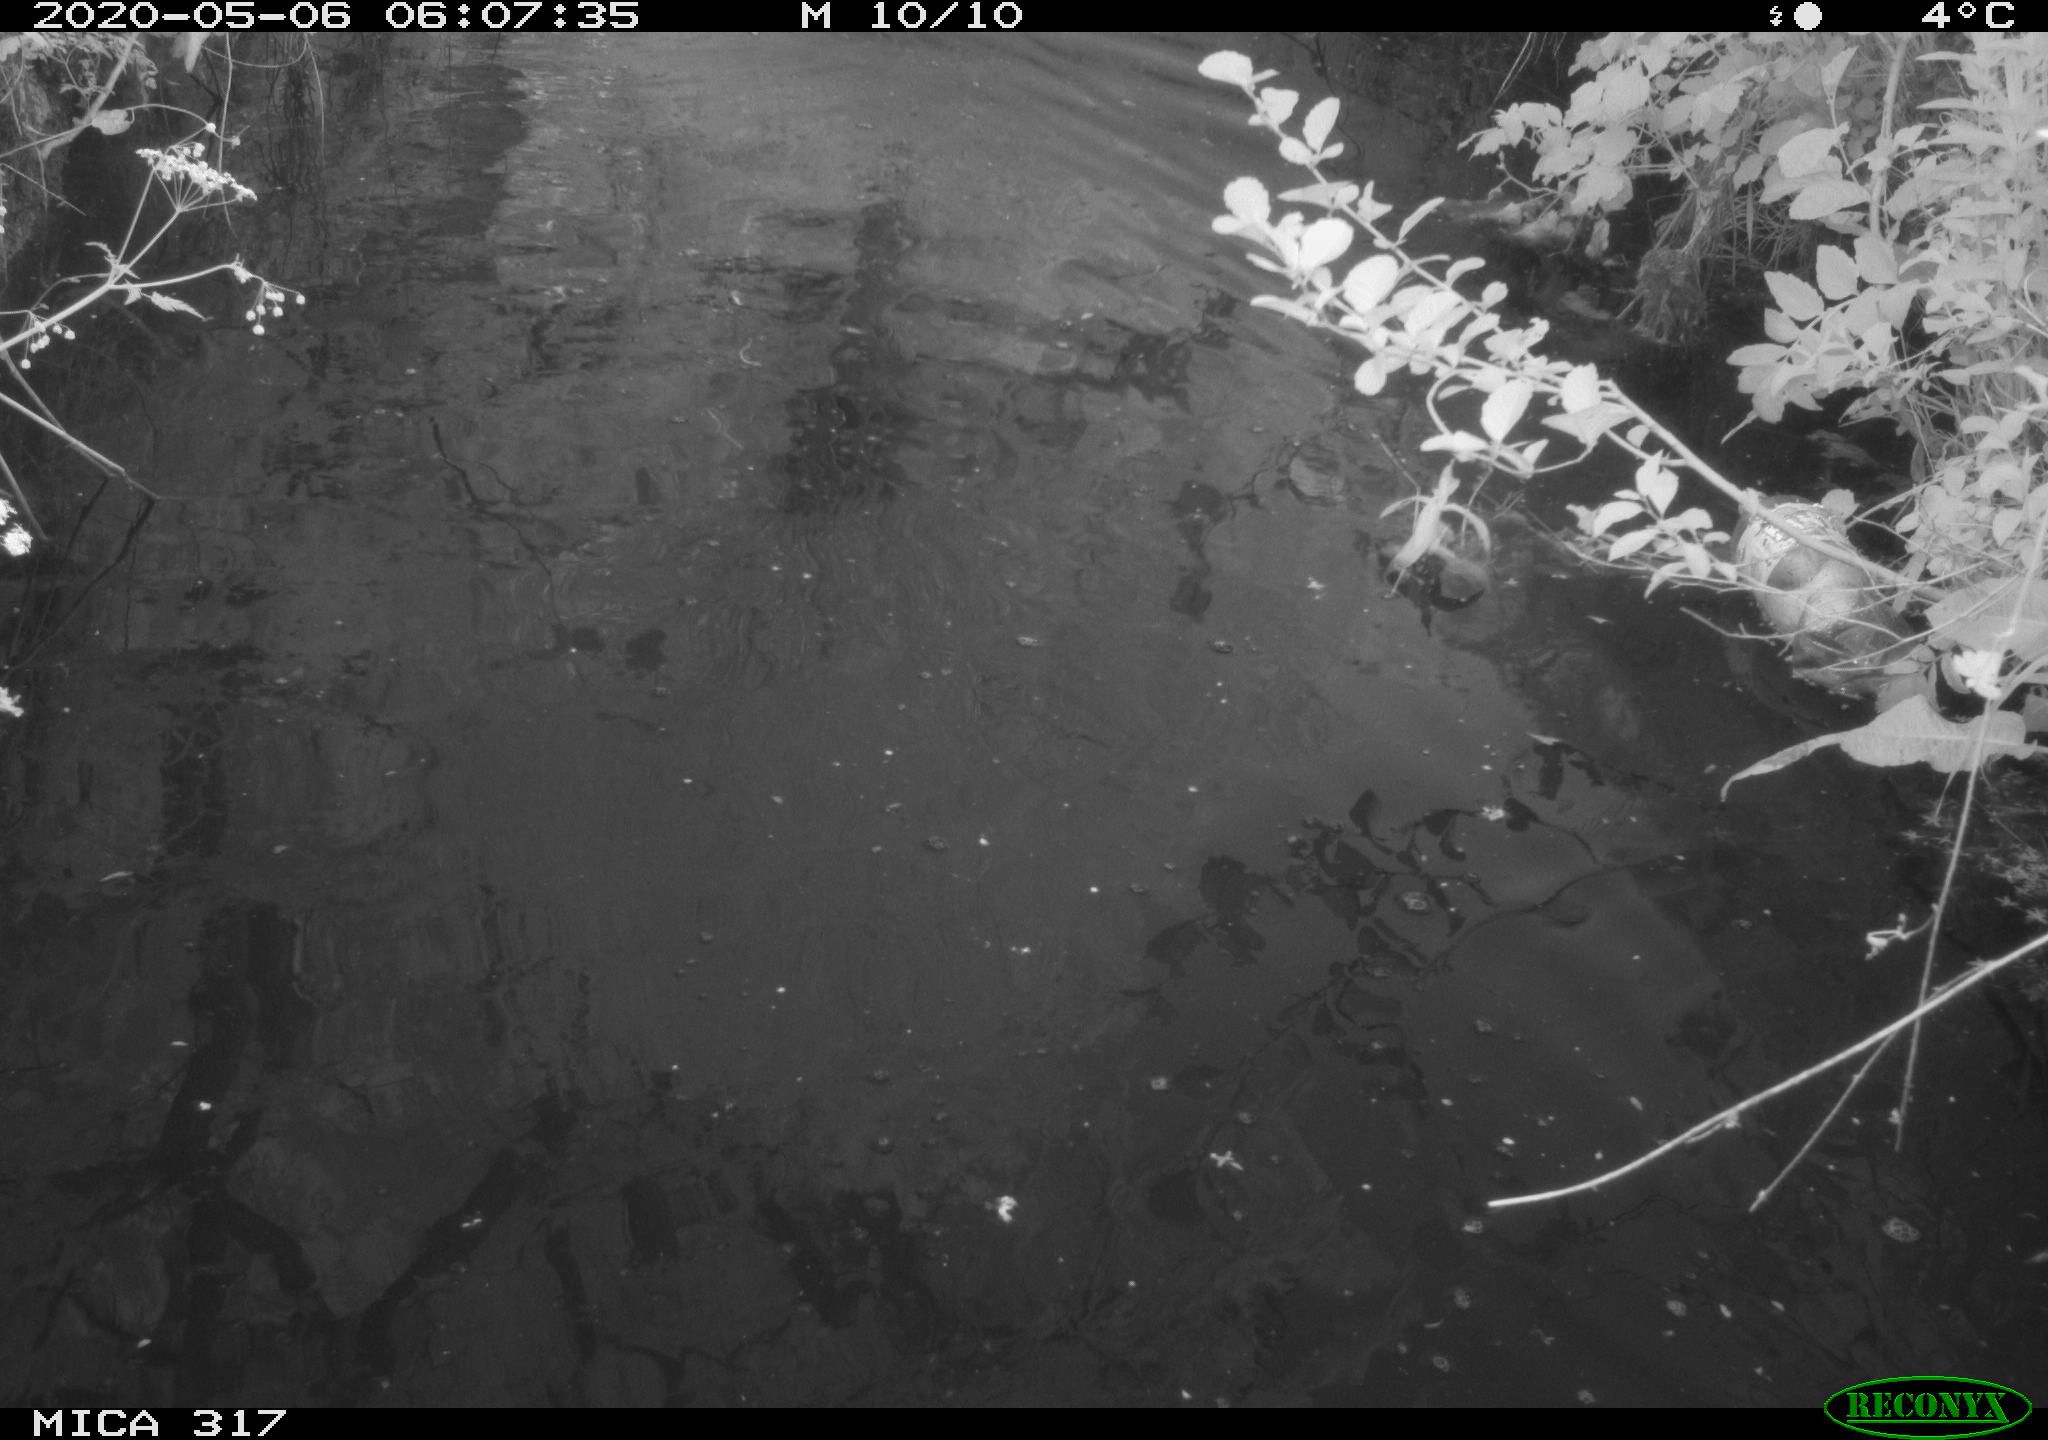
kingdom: Animalia
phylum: Chordata
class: Aves
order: Anseriformes
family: Anatidae
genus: Anas
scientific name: Anas platyrhynchos
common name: Mallard
